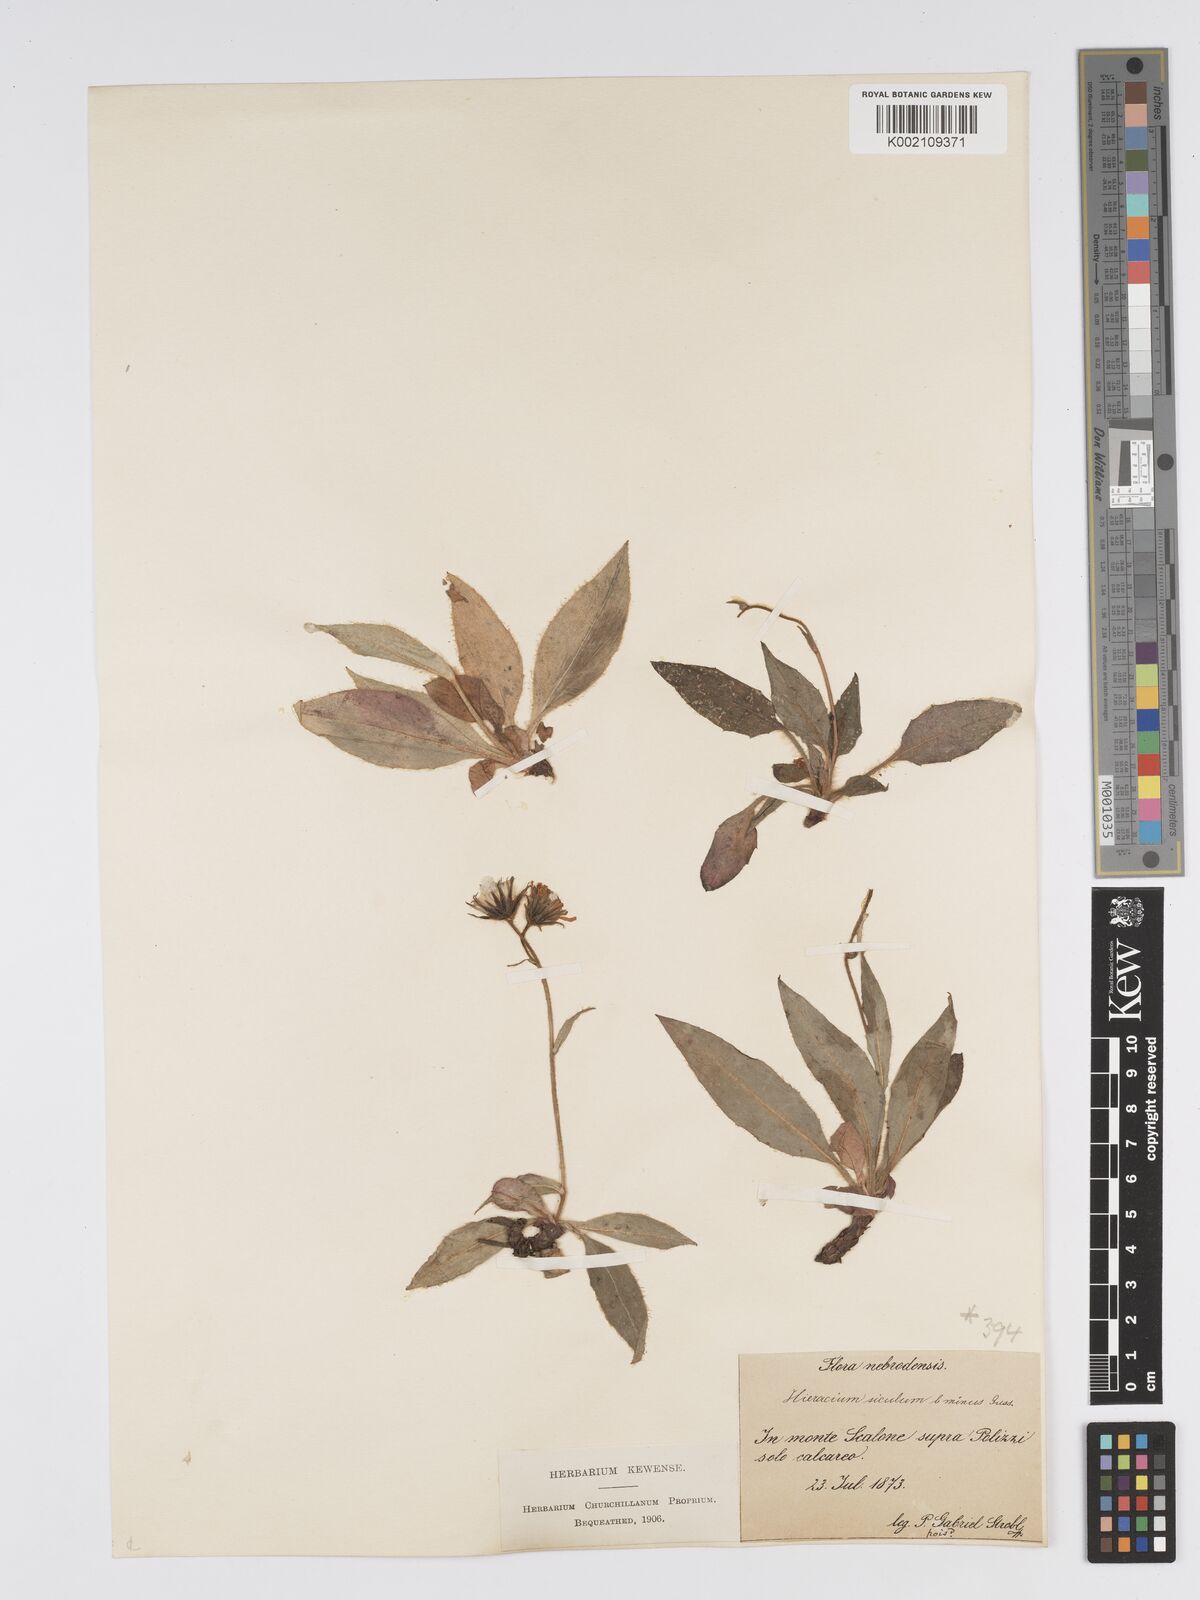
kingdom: Plantae
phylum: Tracheophyta
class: Magnoliopsida
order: Asterales
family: Asteraceae
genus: Hieracium
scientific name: Hieracium symphytifolium
